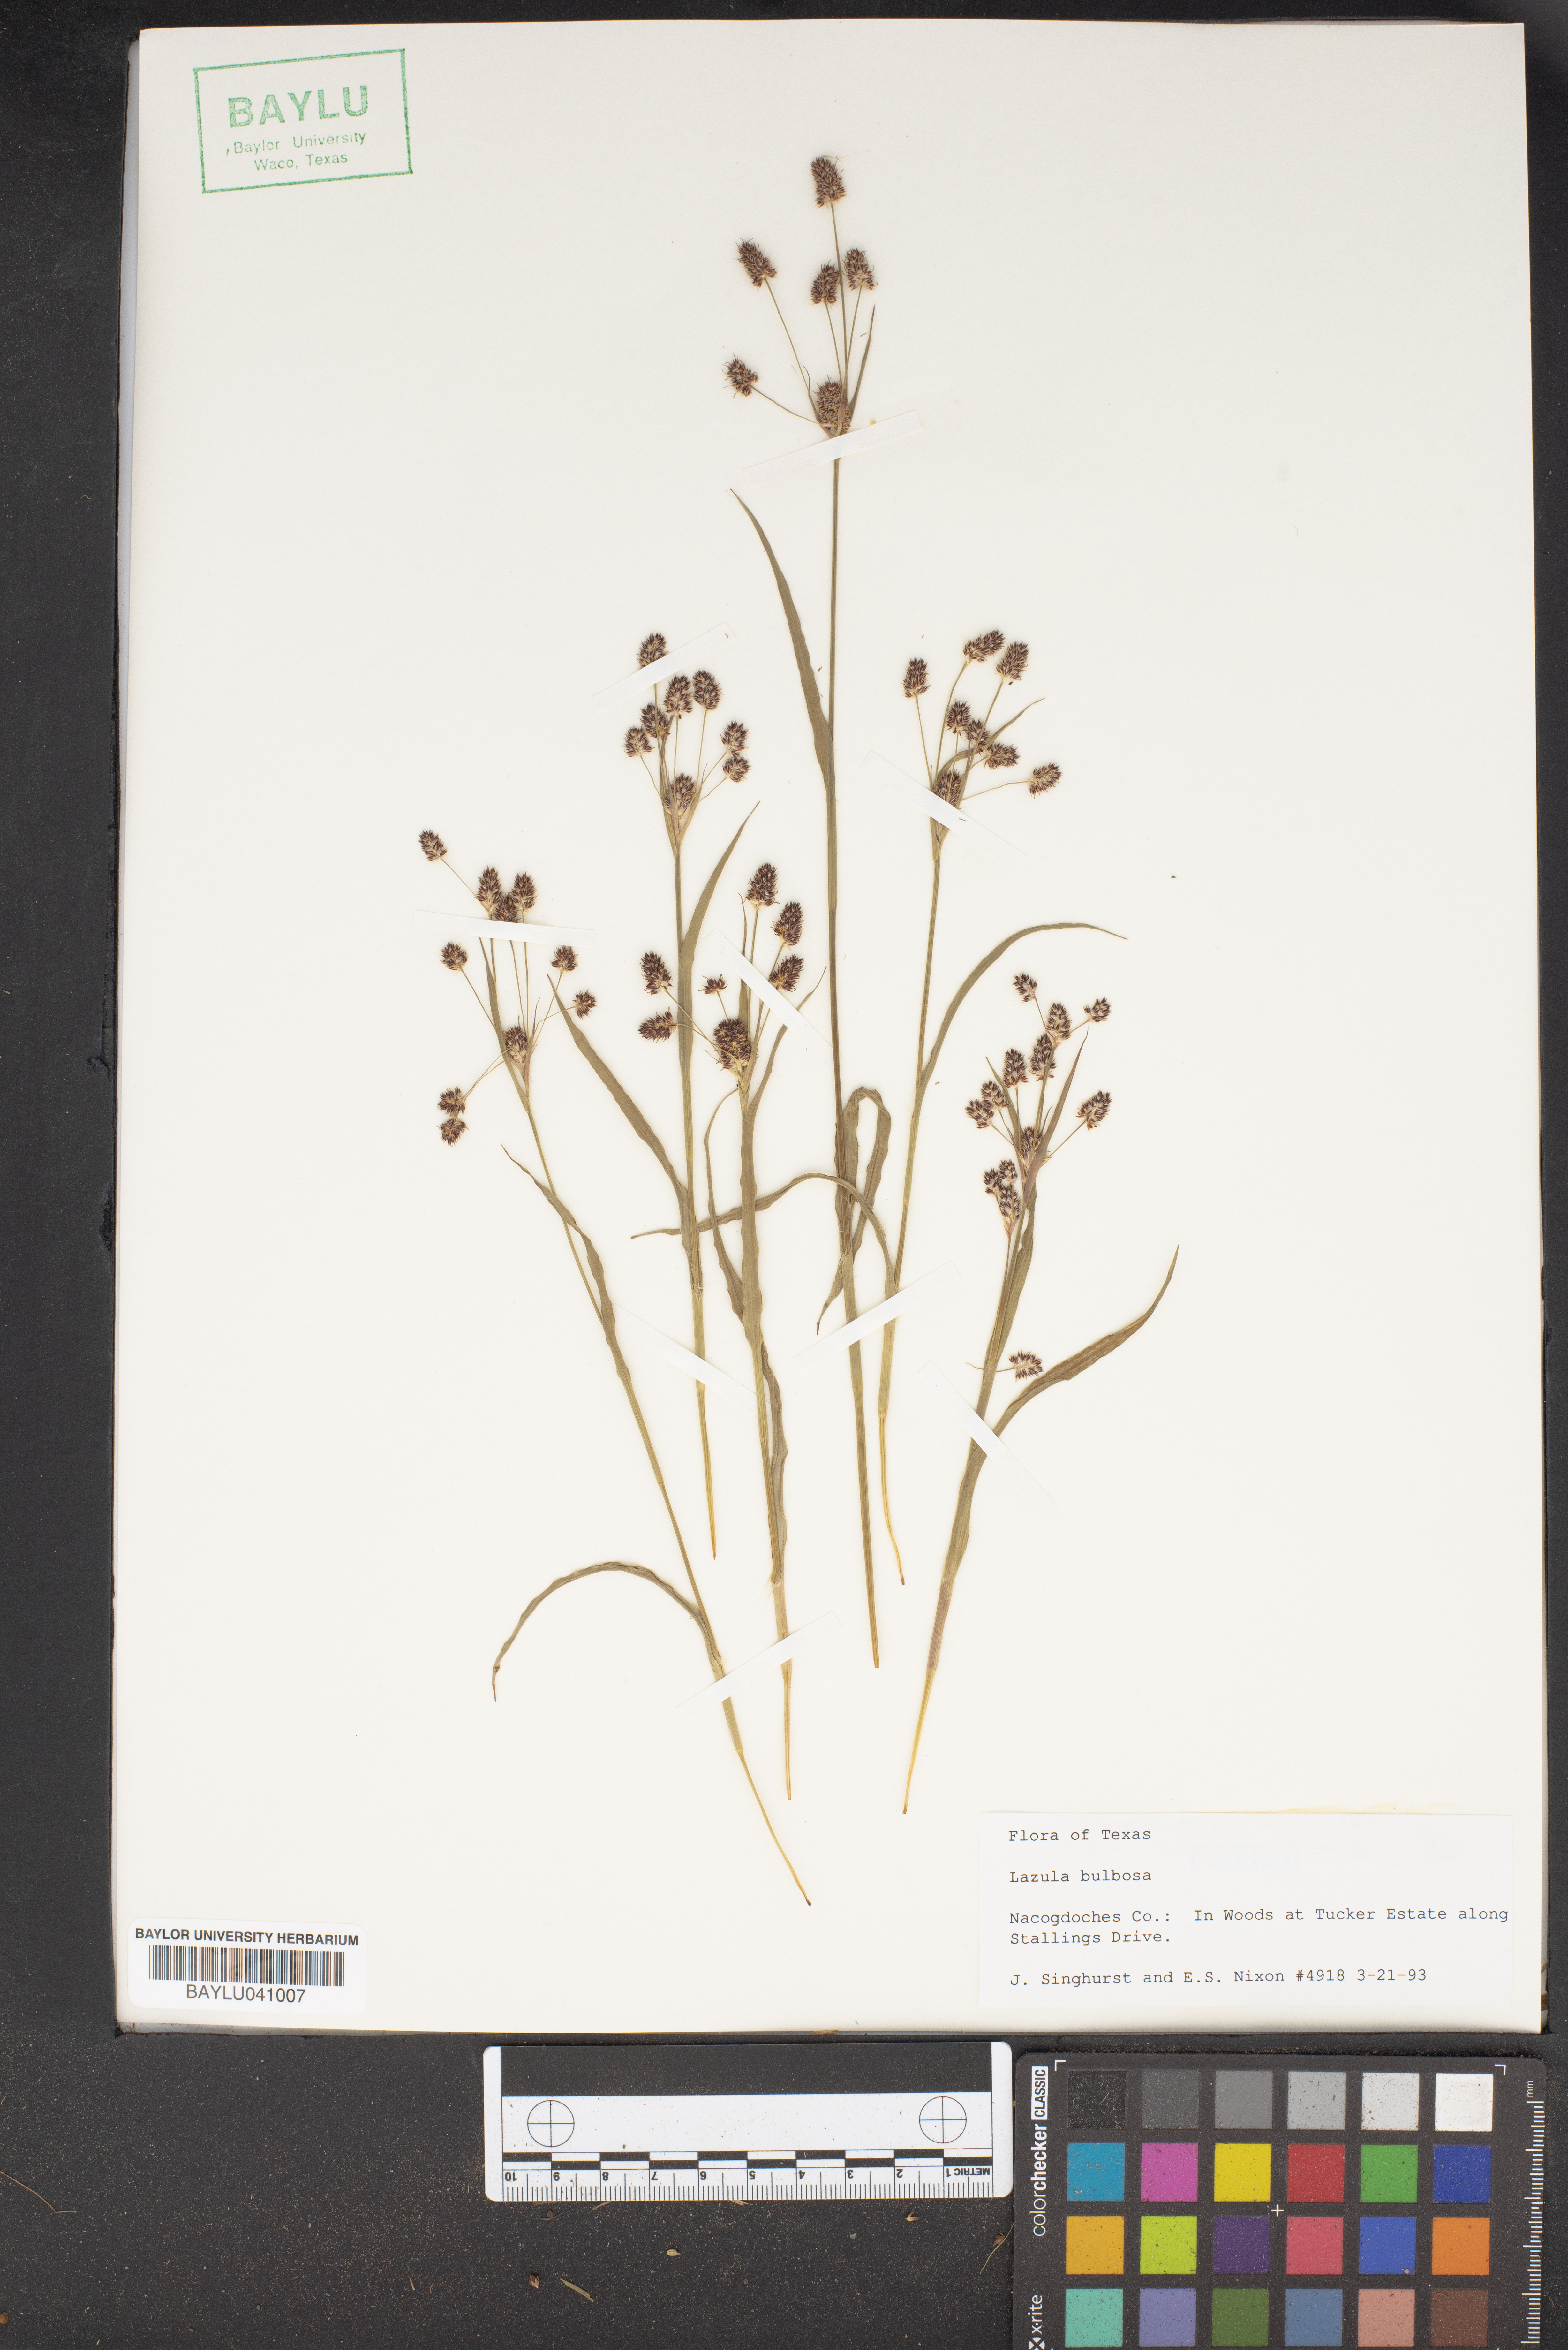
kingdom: Plantae
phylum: Tracheophyta
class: Liliopsida
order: Poales
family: Juncaceae
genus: Luzula
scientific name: Luzula bulbosa
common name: Bulbous woodrush
